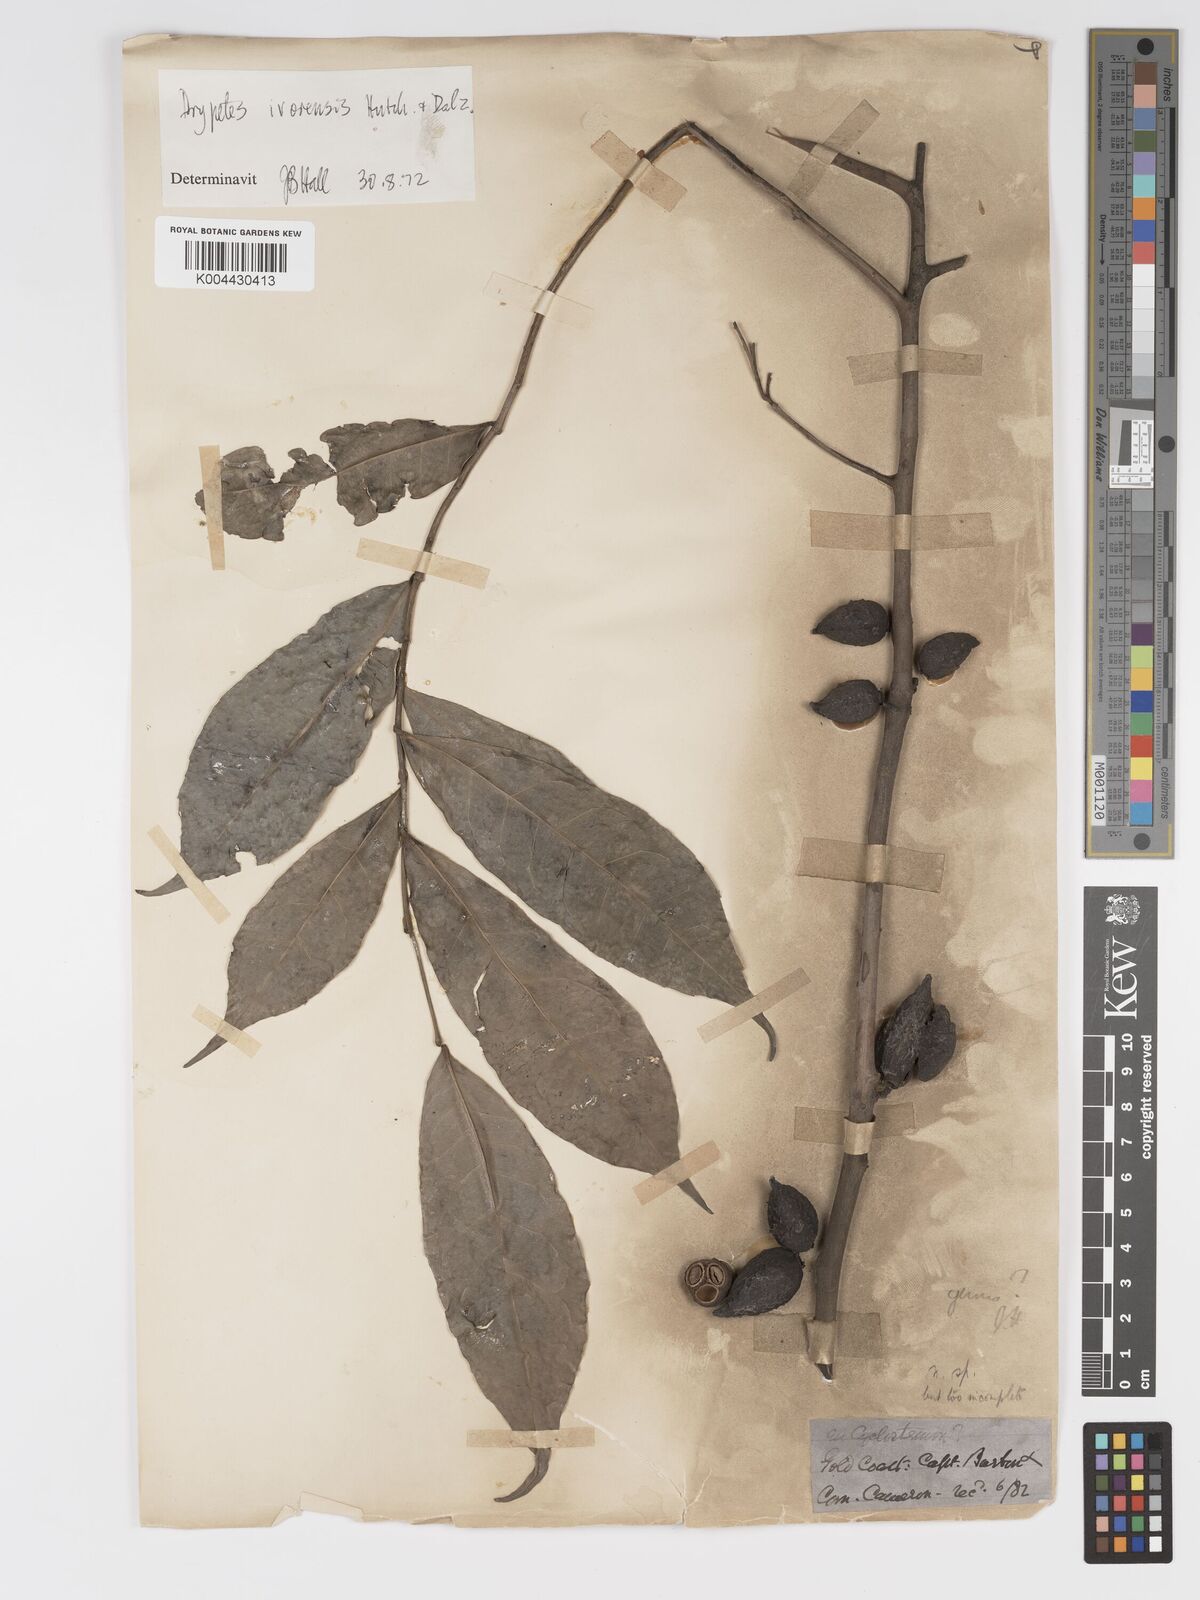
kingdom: Plantae
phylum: Tracheophyta
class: Magnoliopsida
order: Malpighiales
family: Putranjivaceae
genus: Drypetes
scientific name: Drypetes ivorensis
